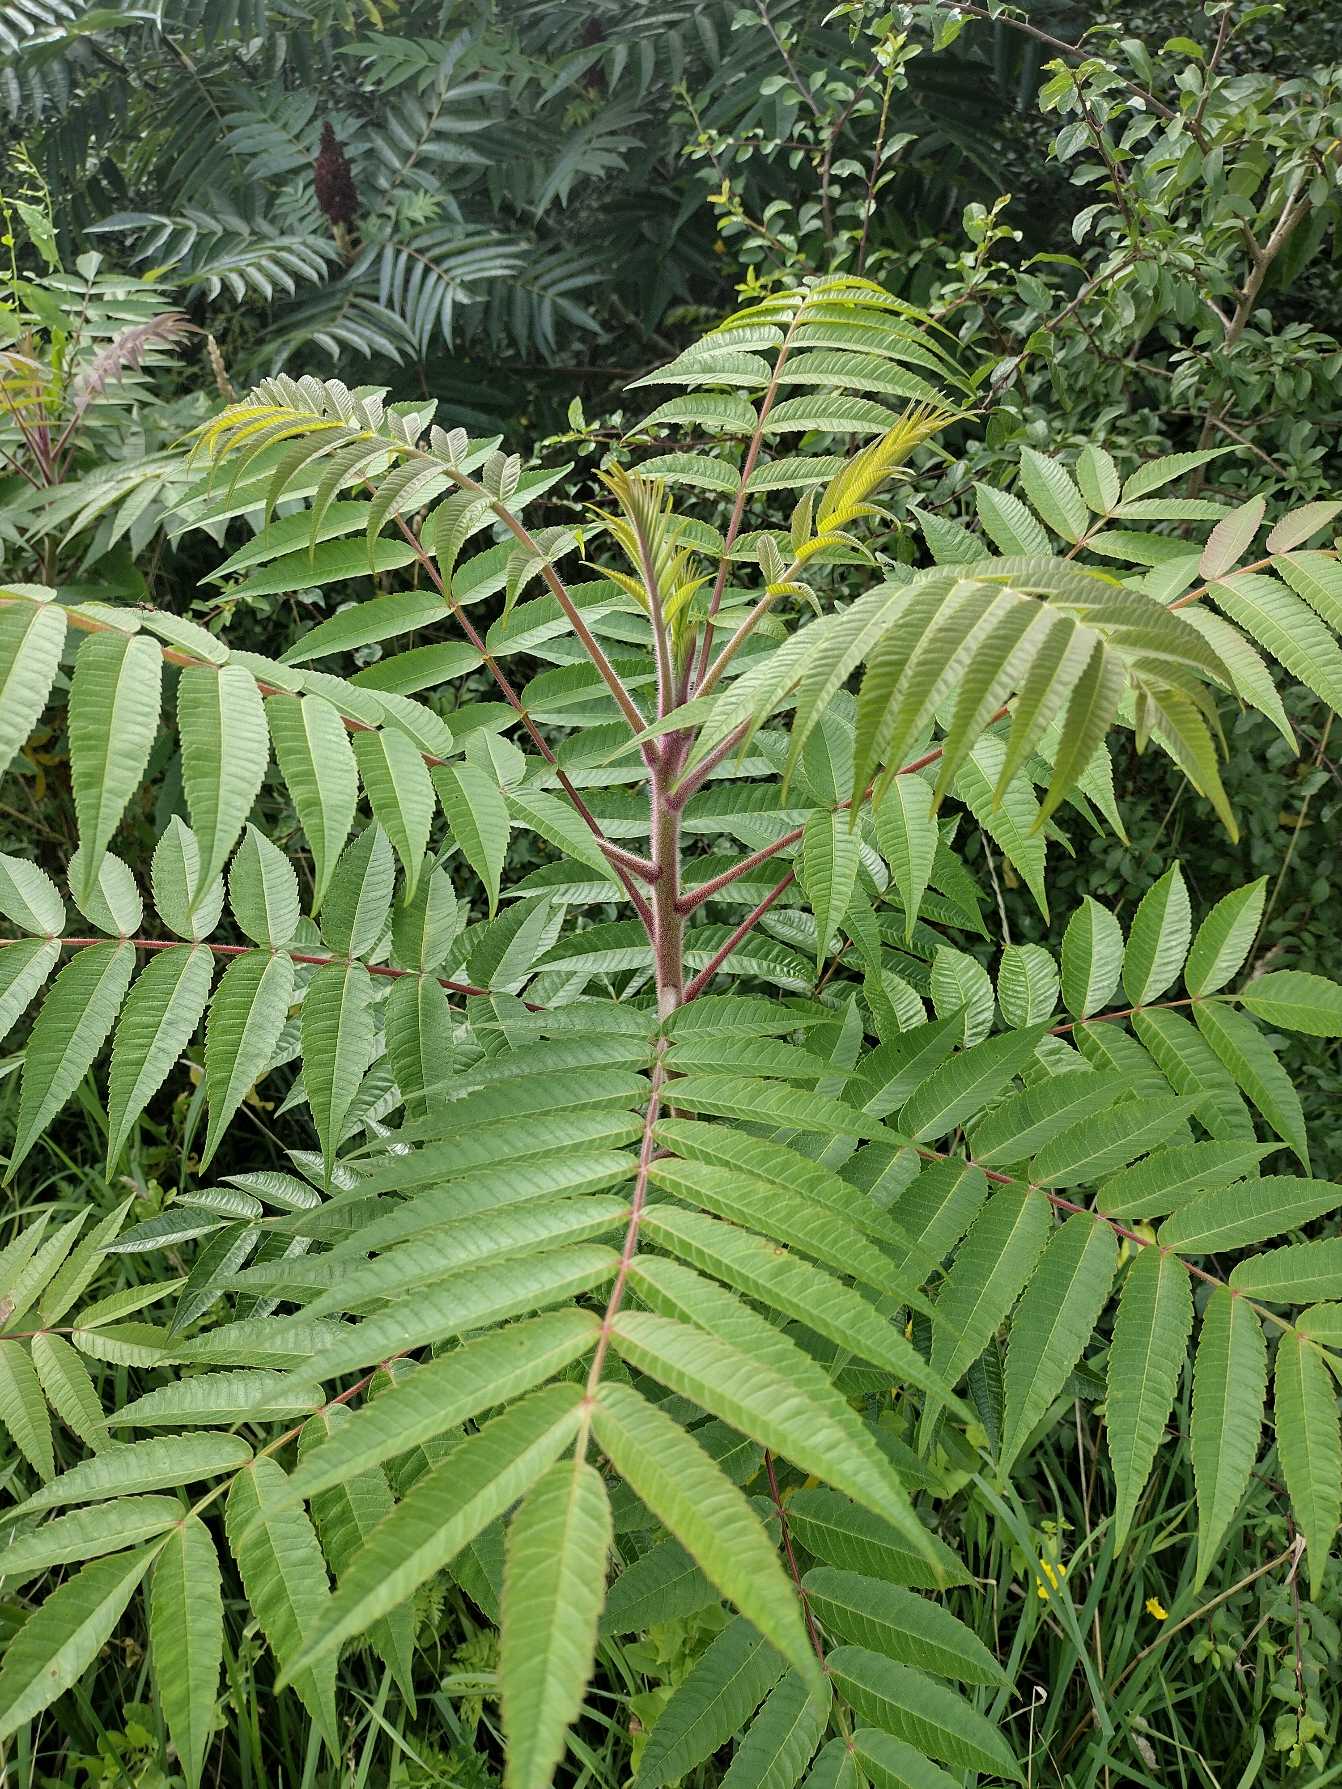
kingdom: Plantae
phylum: Tracheophyta
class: Magnoliopsida
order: Sapindales
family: Anacardiaceae
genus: Rhus
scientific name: Rhus typhina
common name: Hjortetaktræ
